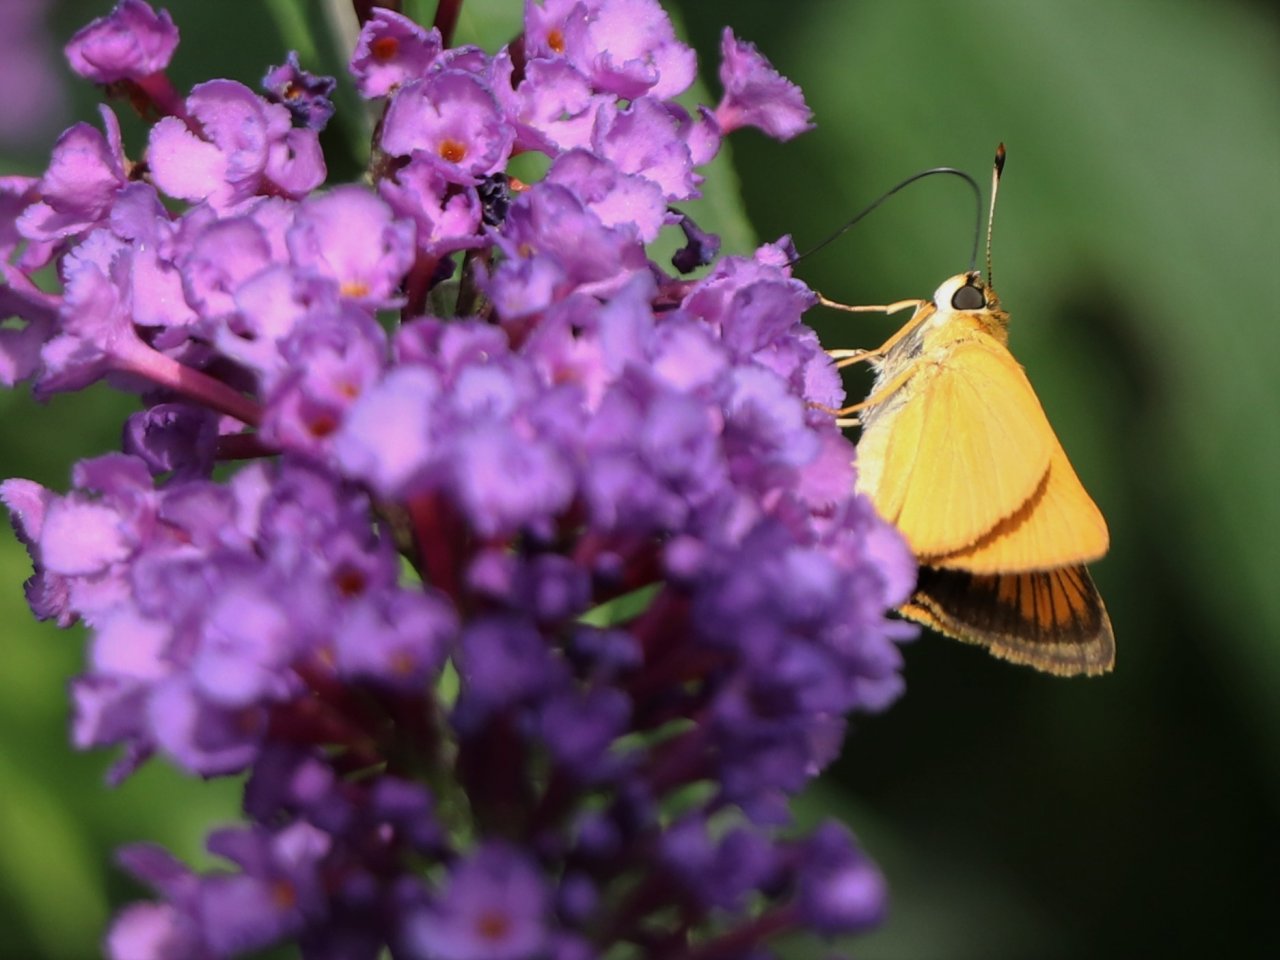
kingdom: Animalia
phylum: Arthropoda
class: Insecta
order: Lepidoptera
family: Hesperiidae
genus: Atrytone
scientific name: Atrytone delaware
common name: Delaware Skipper
